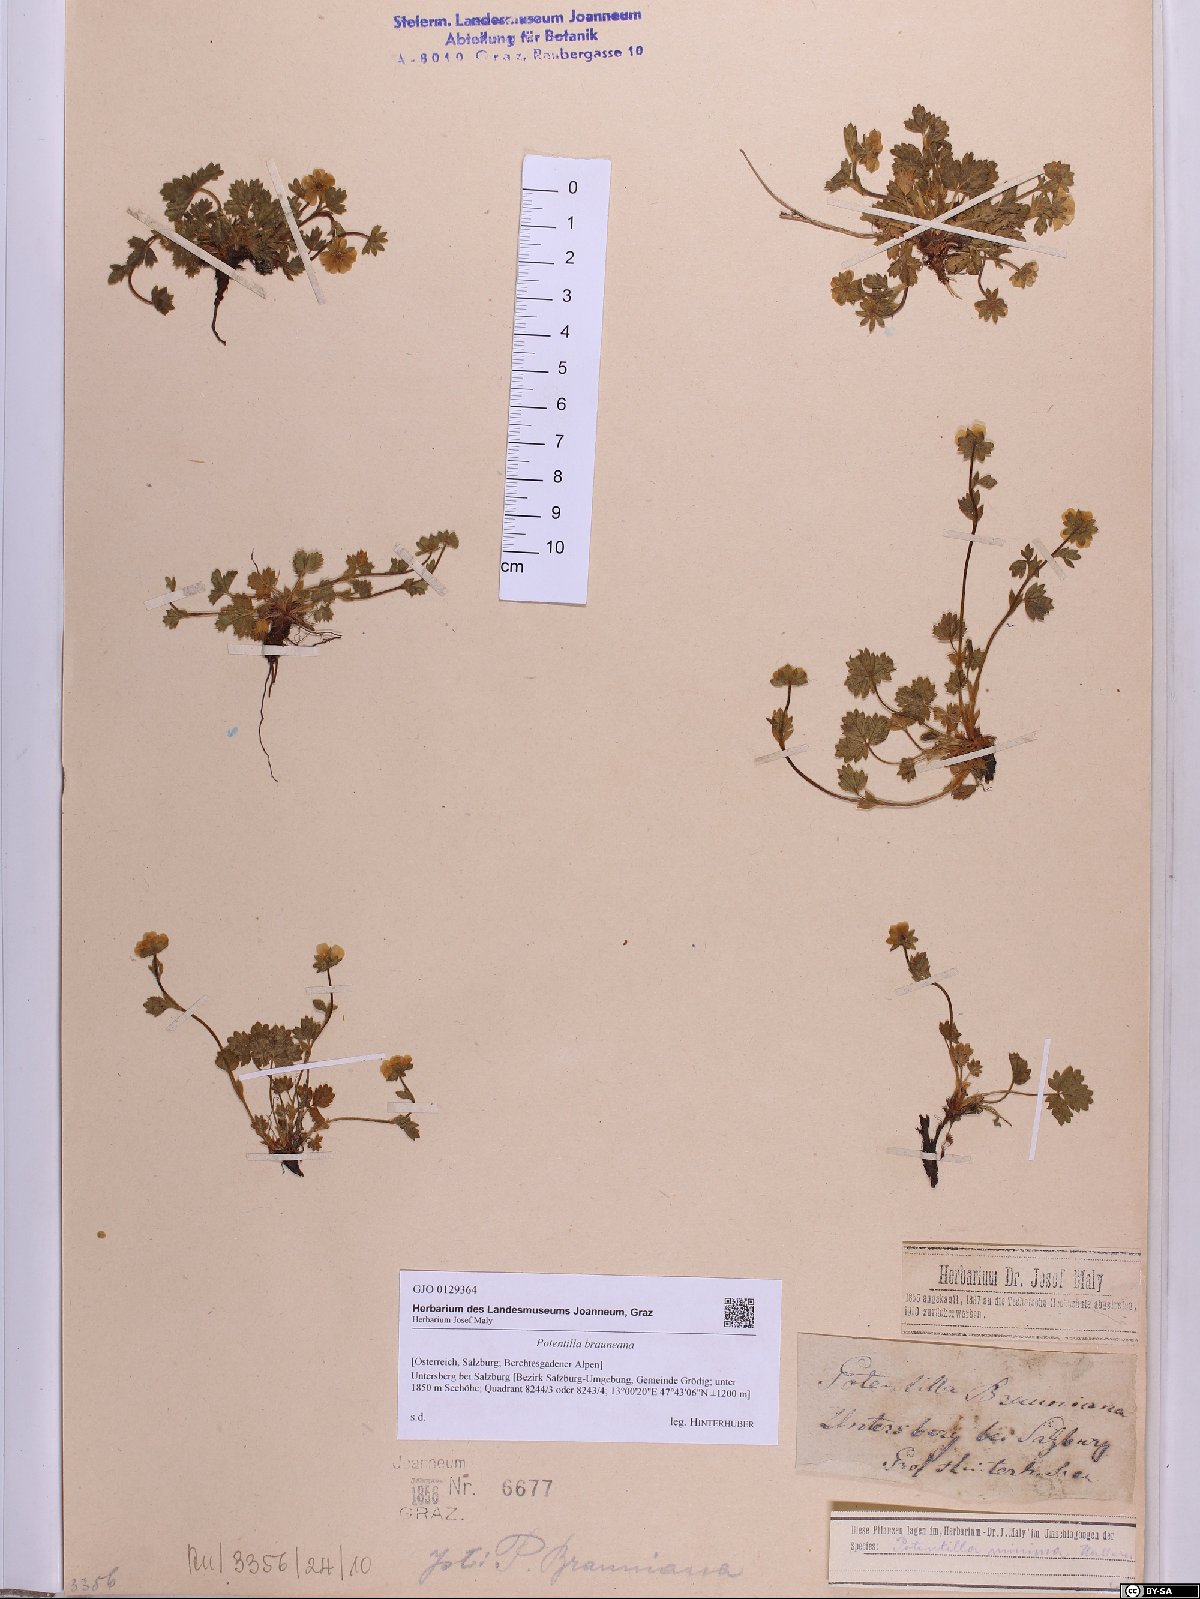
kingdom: Plantae
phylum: Tracheophyta
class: Magnoliopsida
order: Rosales
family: Rosaceae
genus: Potentilla
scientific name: Potentilla brauneana
